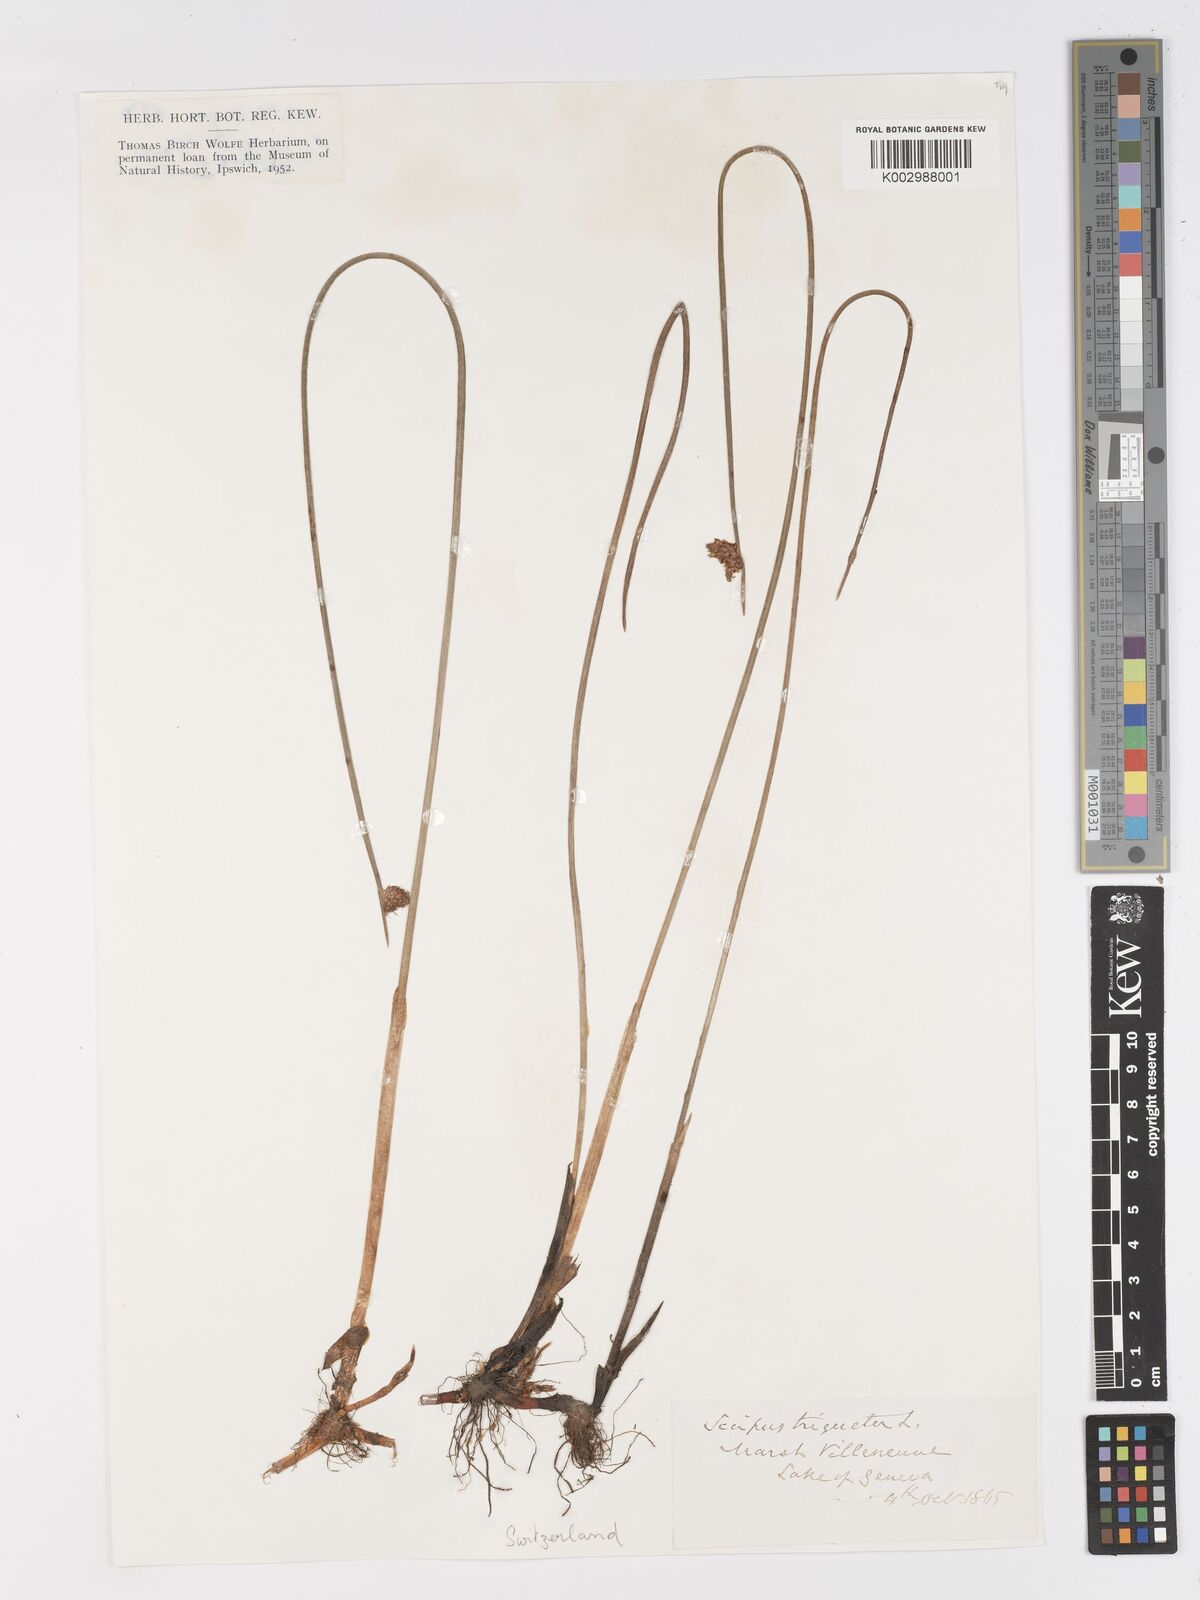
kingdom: Plantae
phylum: Tracheophyta
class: Liliopsida
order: Poales
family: Cyperaceae
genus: Schoenoplectus
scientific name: Schoenoplectus triqueter
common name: Triangular club-rush
